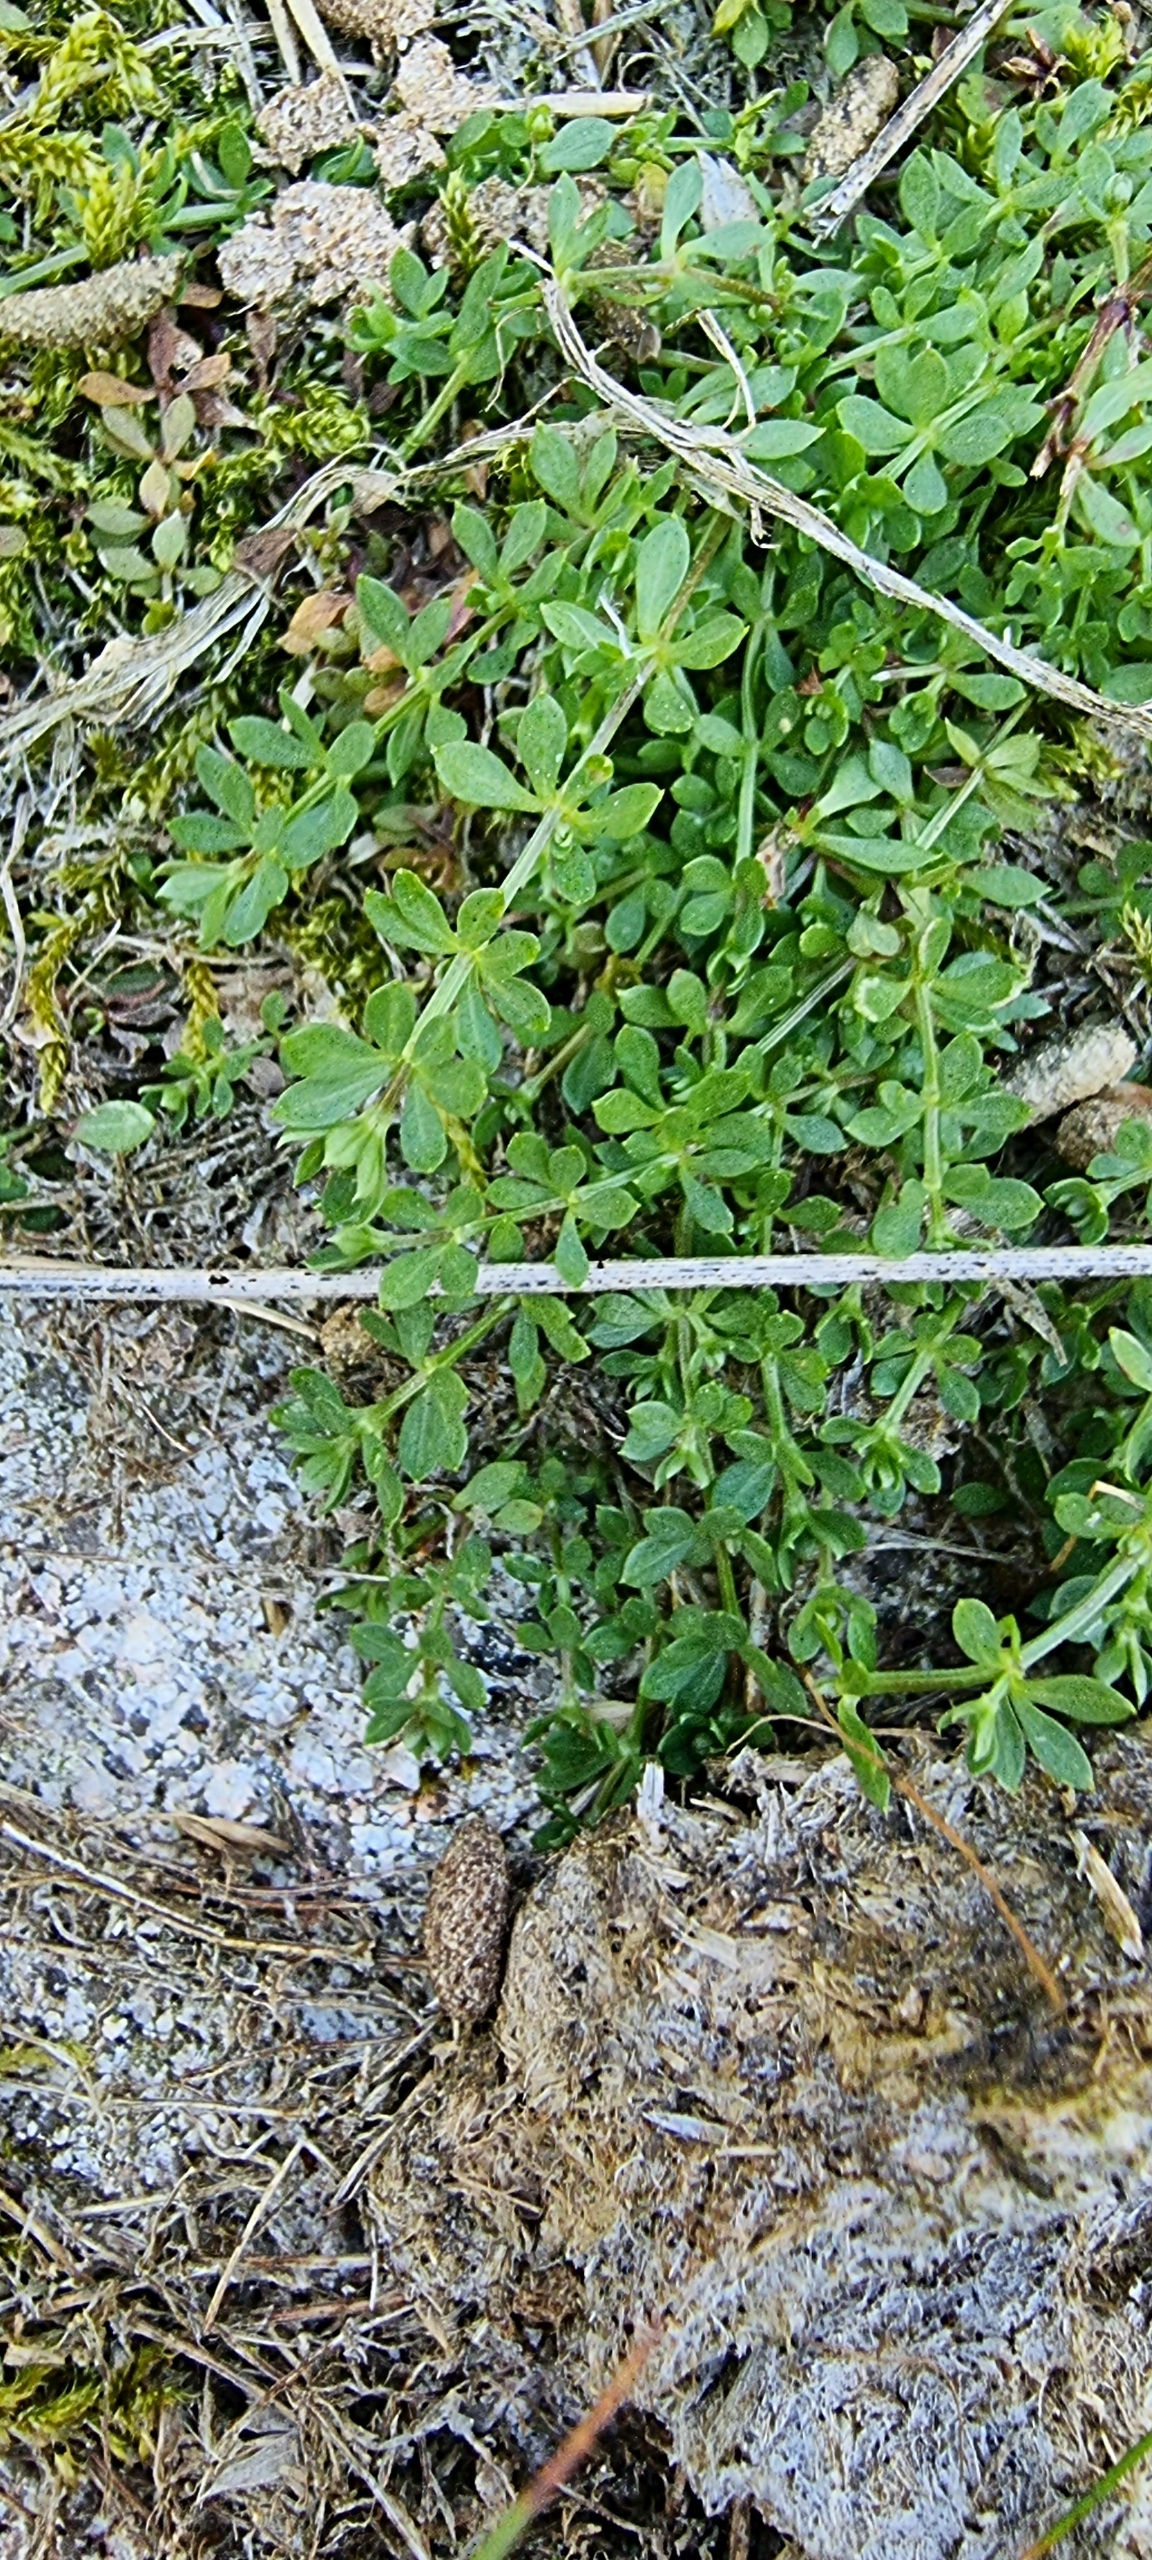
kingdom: Plantae
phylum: Tracheophyta
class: Magnoliopsida
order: Gentianales
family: Rubiaceae
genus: Galium
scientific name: Galium saxatile
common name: Lyng-snerre
